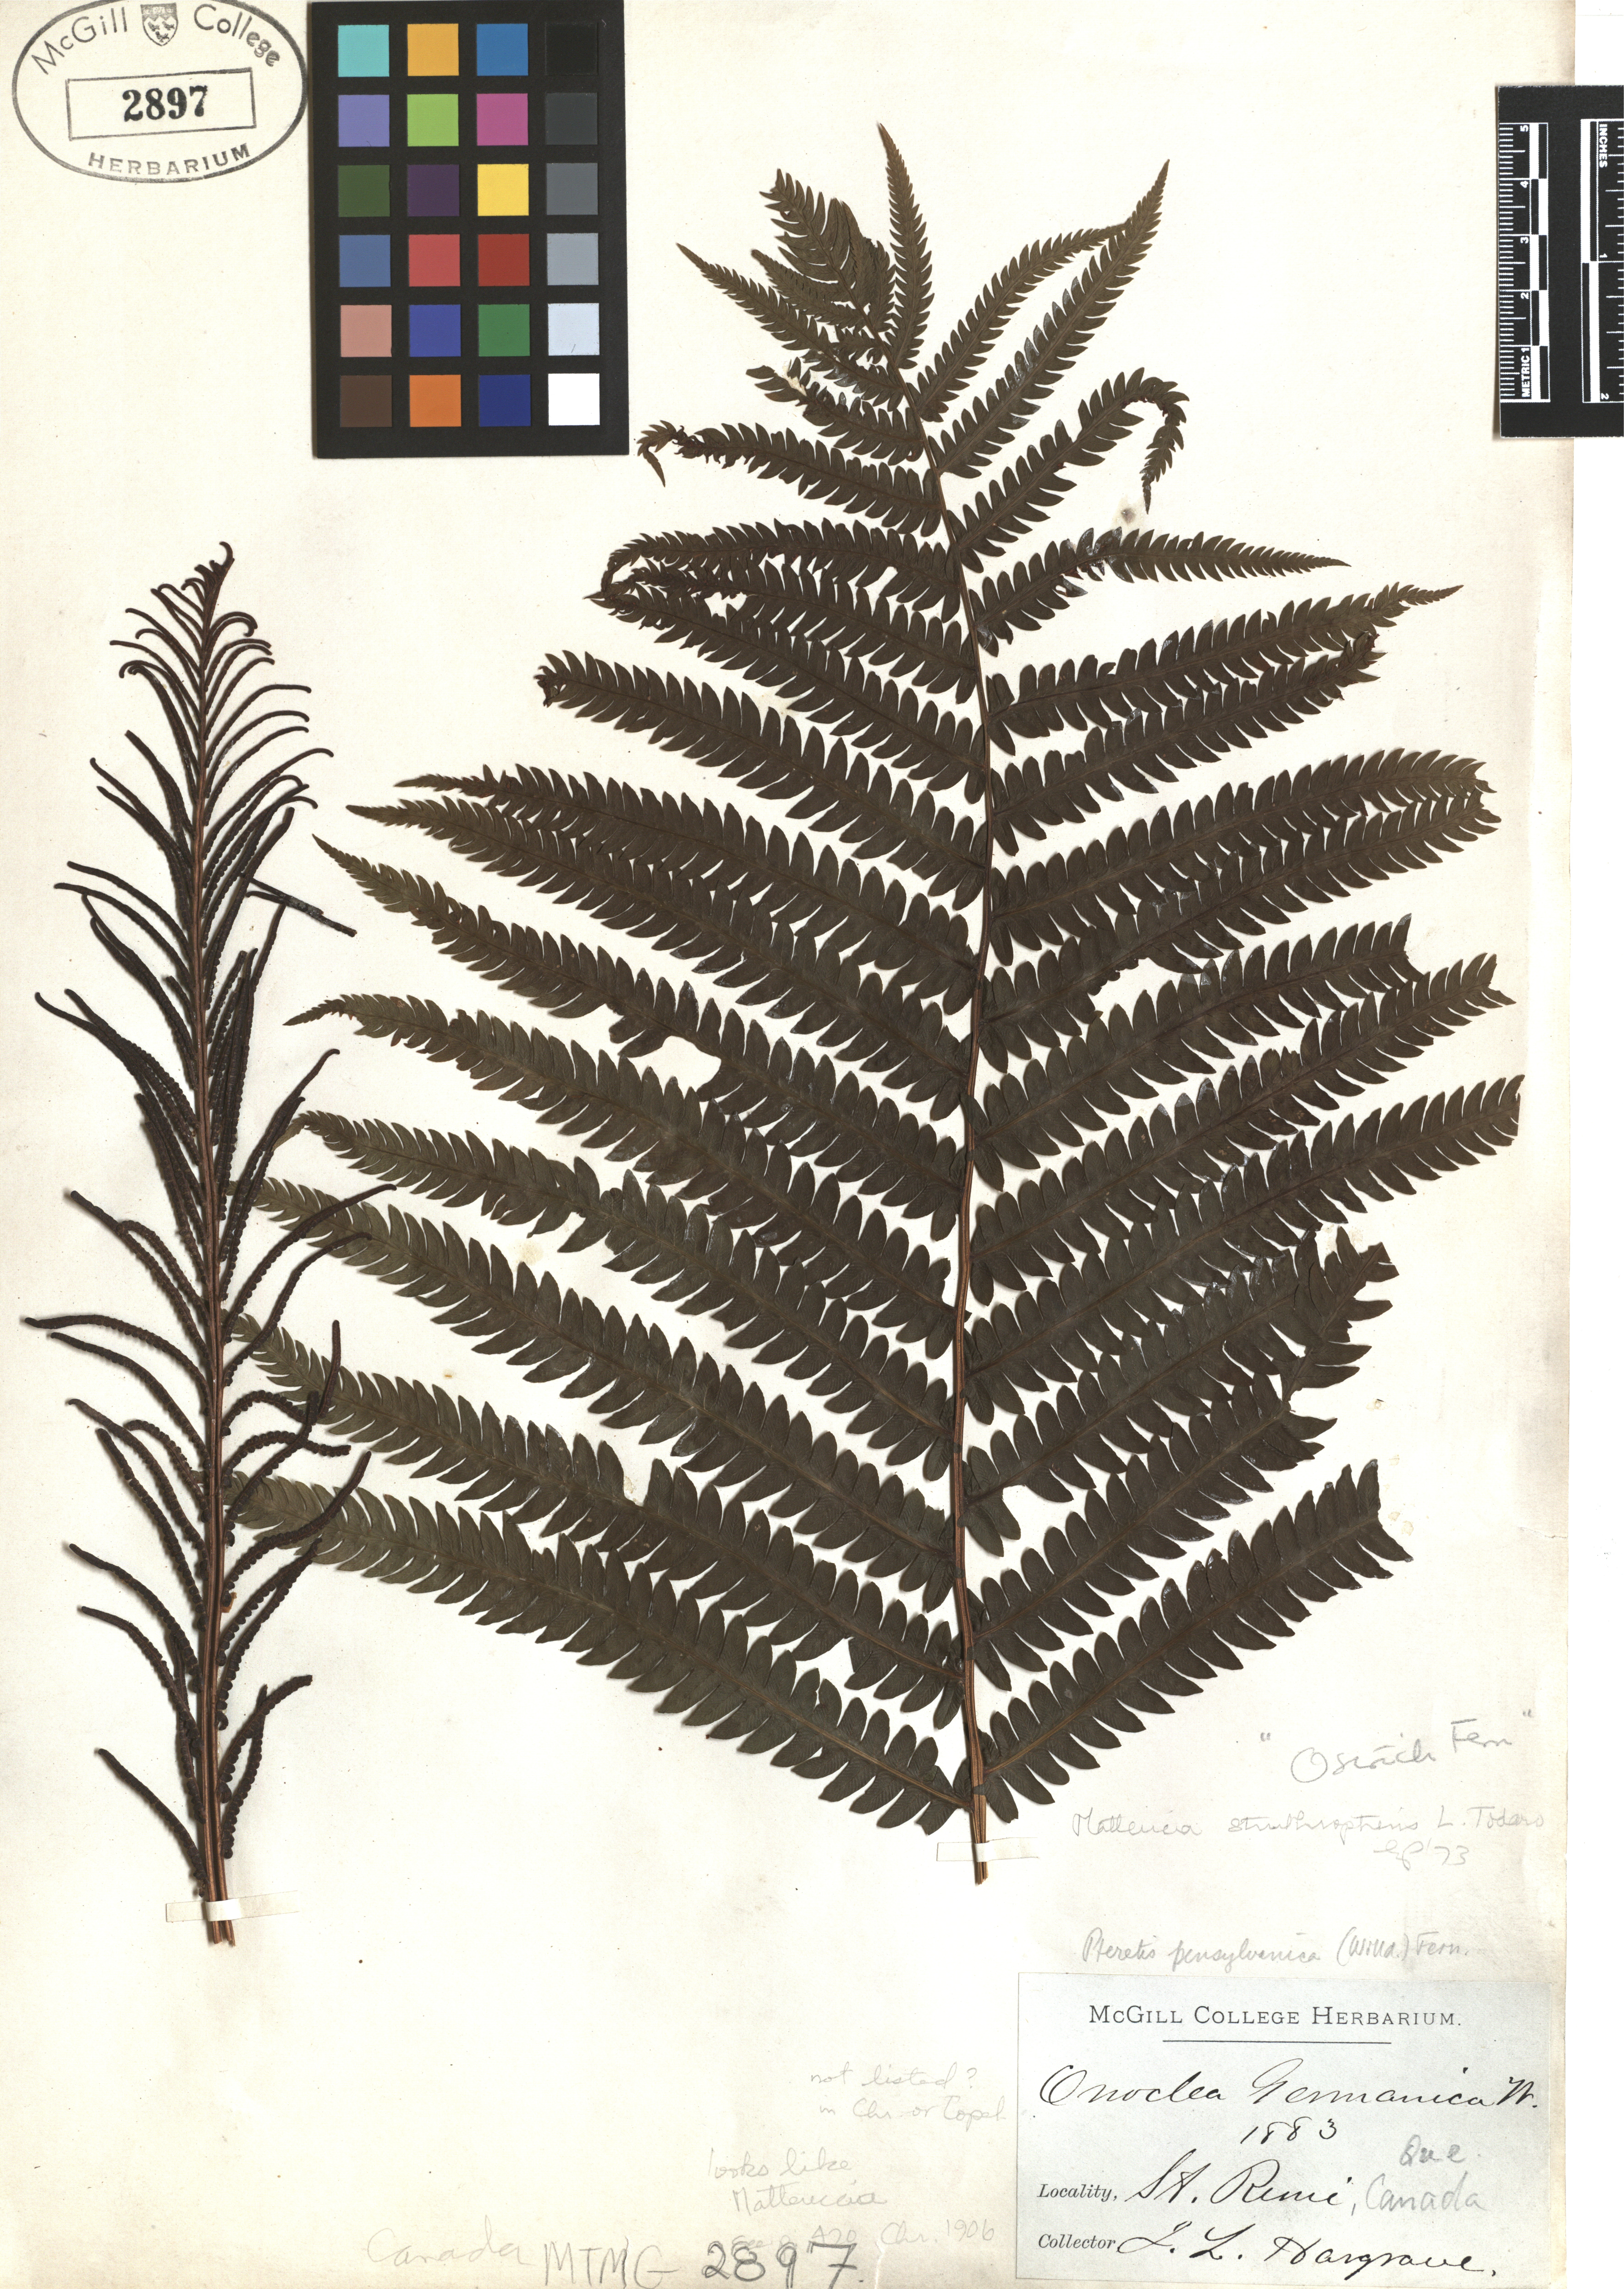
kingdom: Plantae
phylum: Tracheophyta
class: Polypodiopsida
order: Polypodiales
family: Onocleaceae
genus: Matteuccia
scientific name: Matteuccia struthiopteris
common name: Ostrich fern
